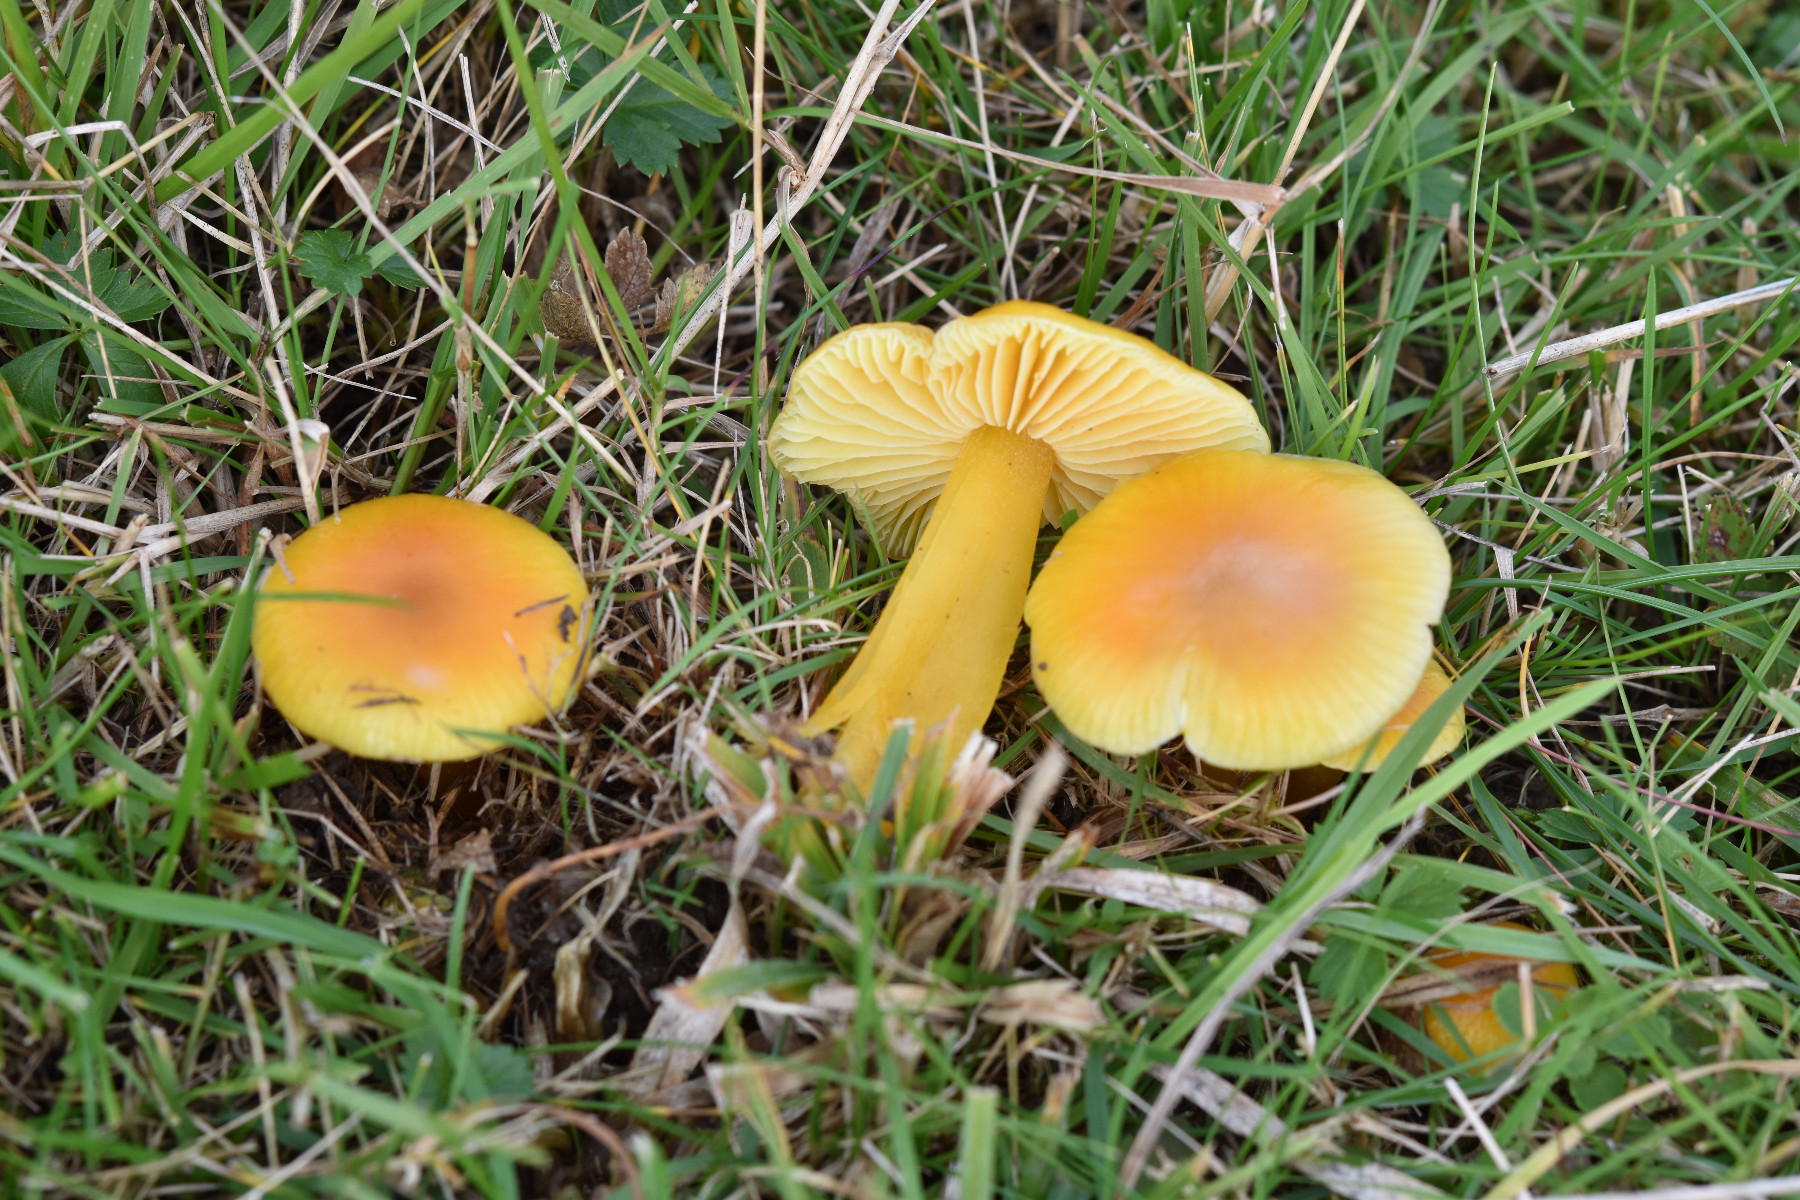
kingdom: Fungi
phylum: Basidiomycota
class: Agaricomycetes
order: Agaricales
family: Hygrophoraceae
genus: Hygrocybe
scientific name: Hygrocybe chlorophana
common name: gul vokshat
